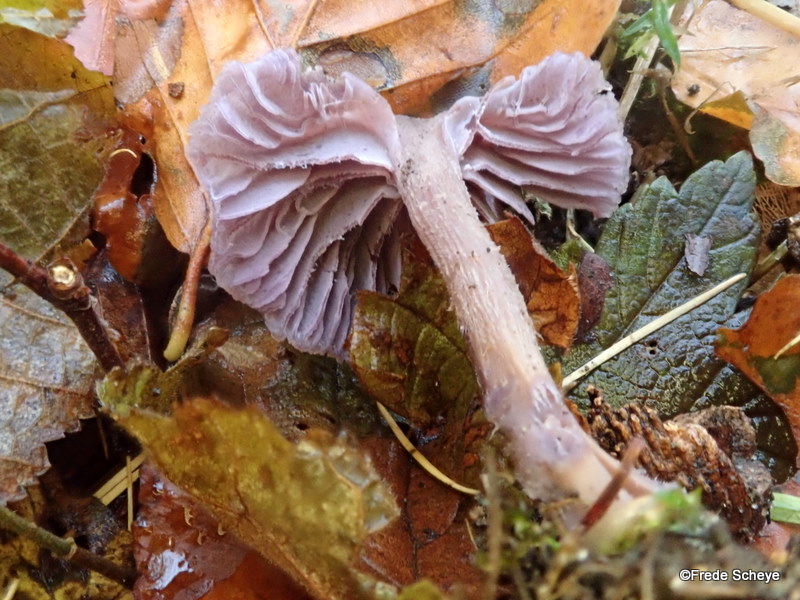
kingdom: Fungi
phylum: Basidiomycota
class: Agaricomycetes
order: Agaricales
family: Hydnangiaceae
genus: Laccaria
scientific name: Laccaria amethystina
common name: violet ametysthat
